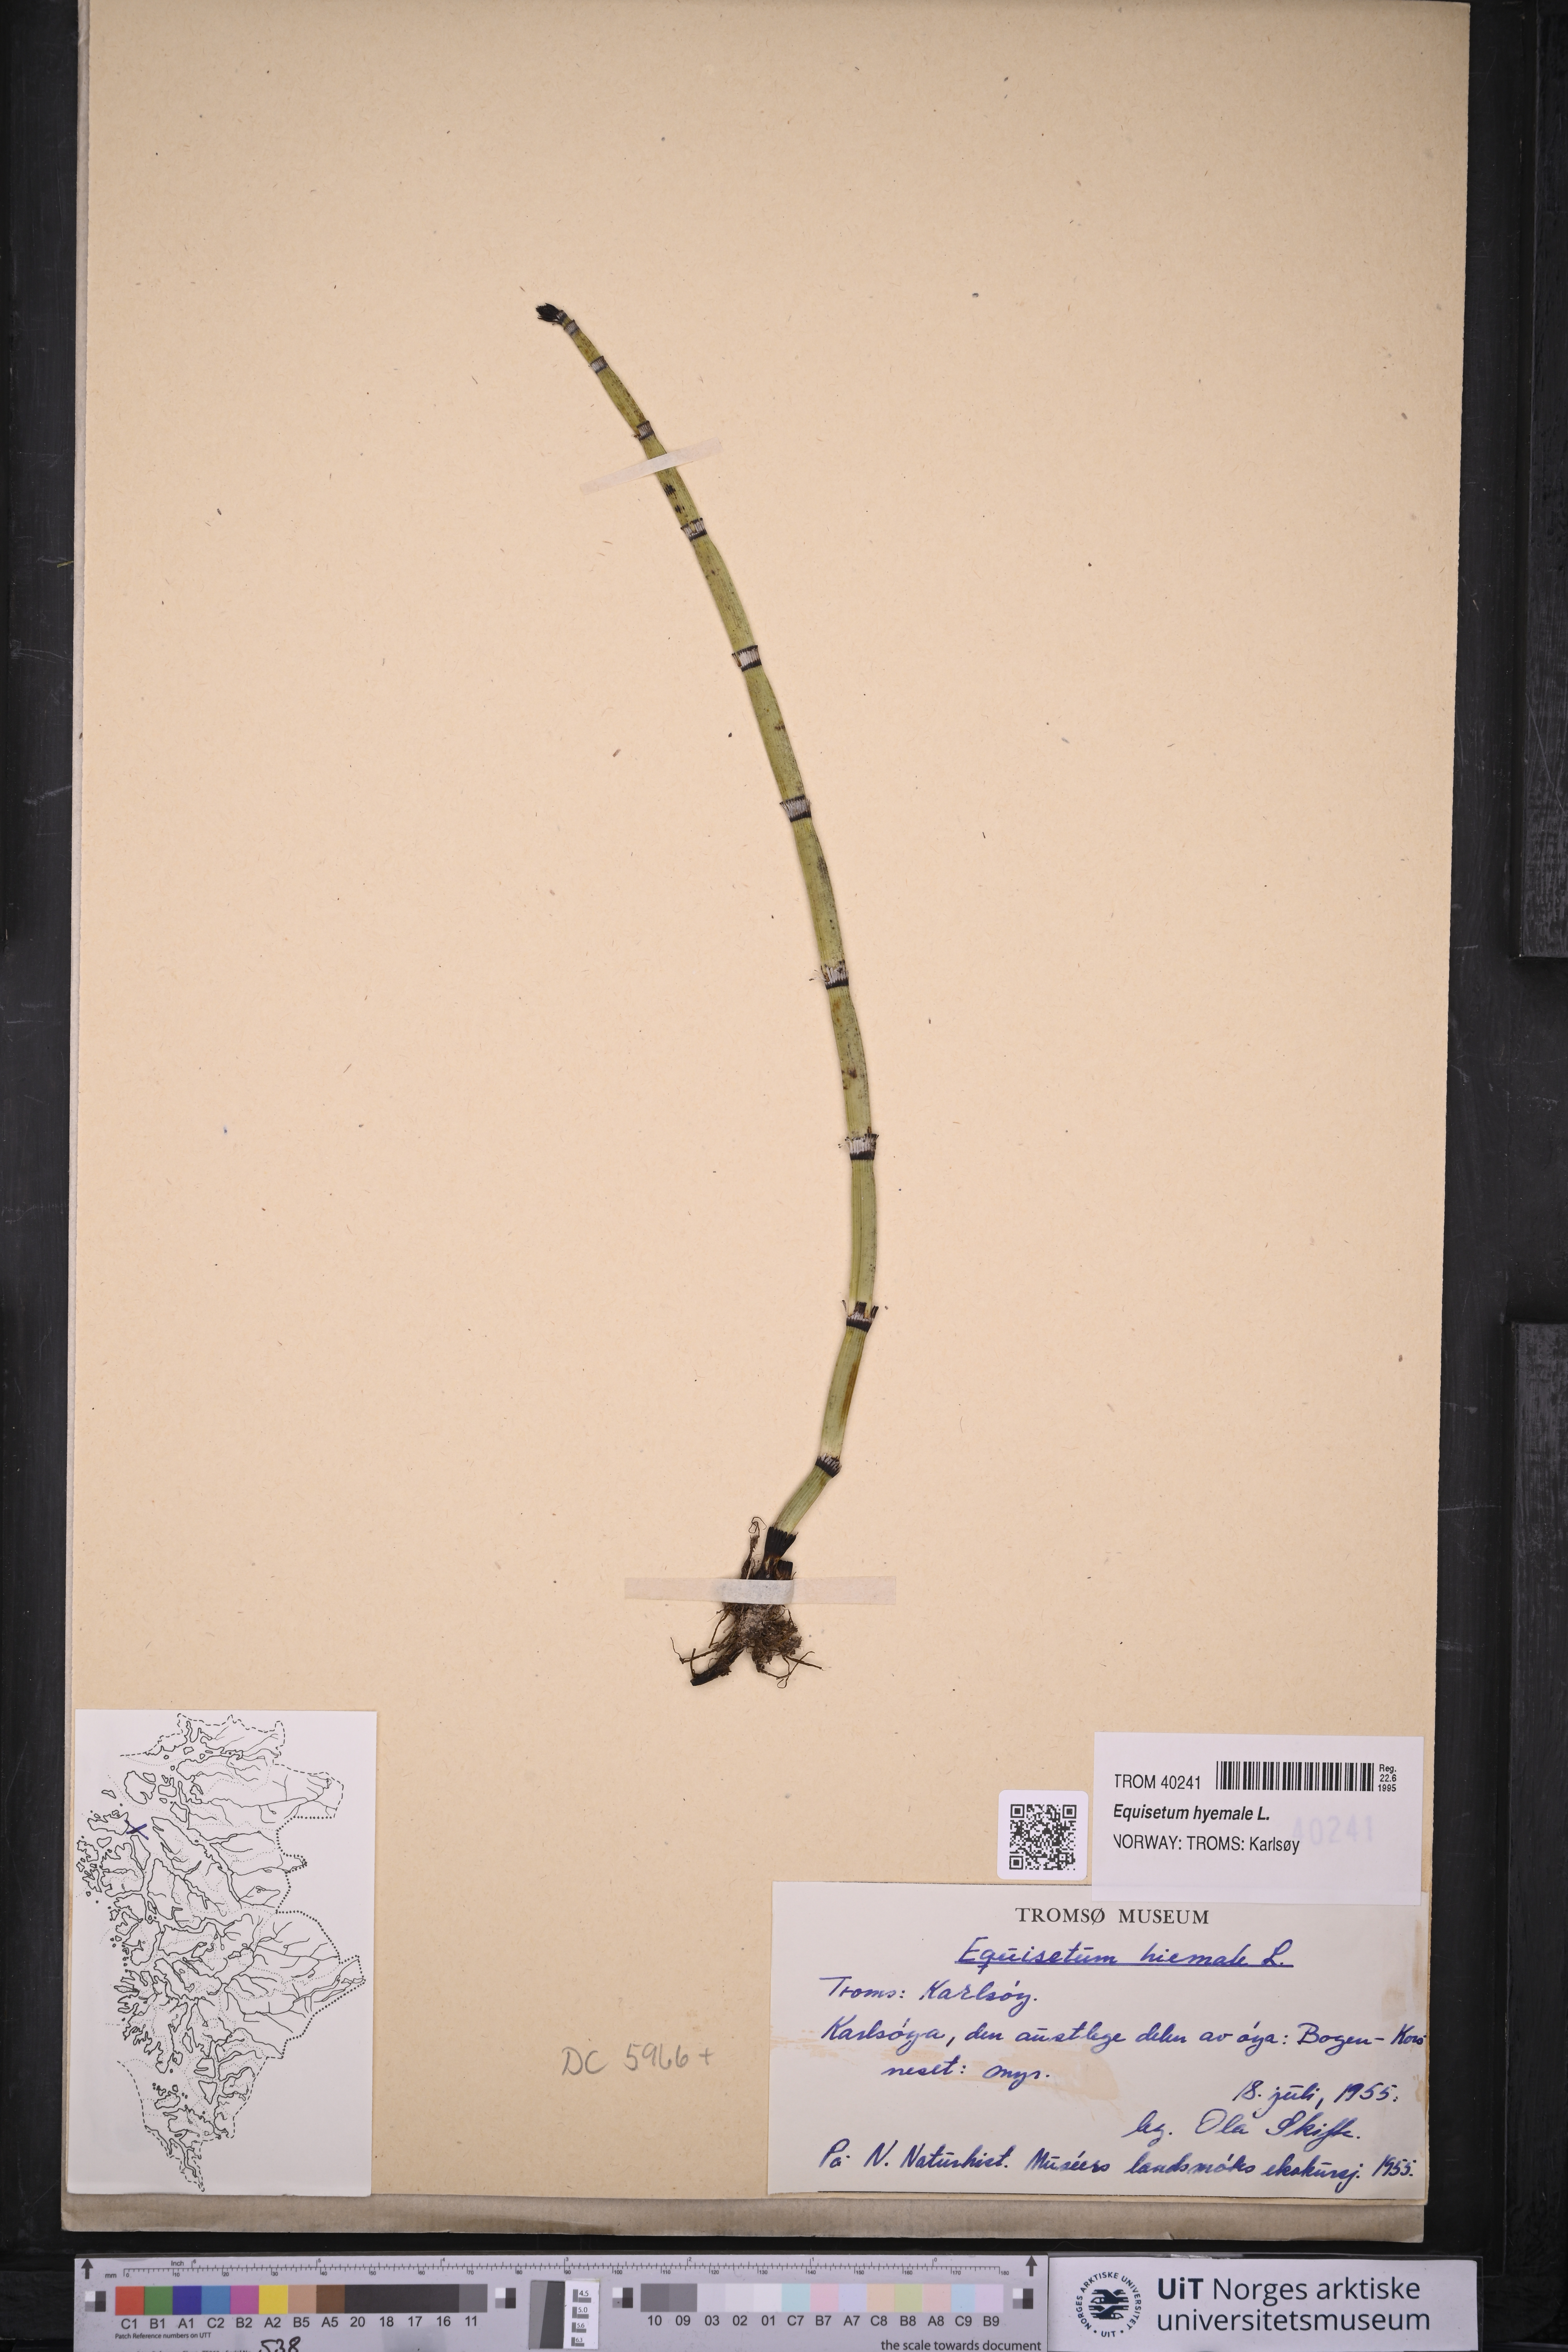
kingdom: Plantae
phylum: Tracheophyta
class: Polypodiopsida
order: Equisetales
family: Equisetaceae
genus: Equisetum
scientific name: Equisetum hyemale
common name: Rough horsetail
